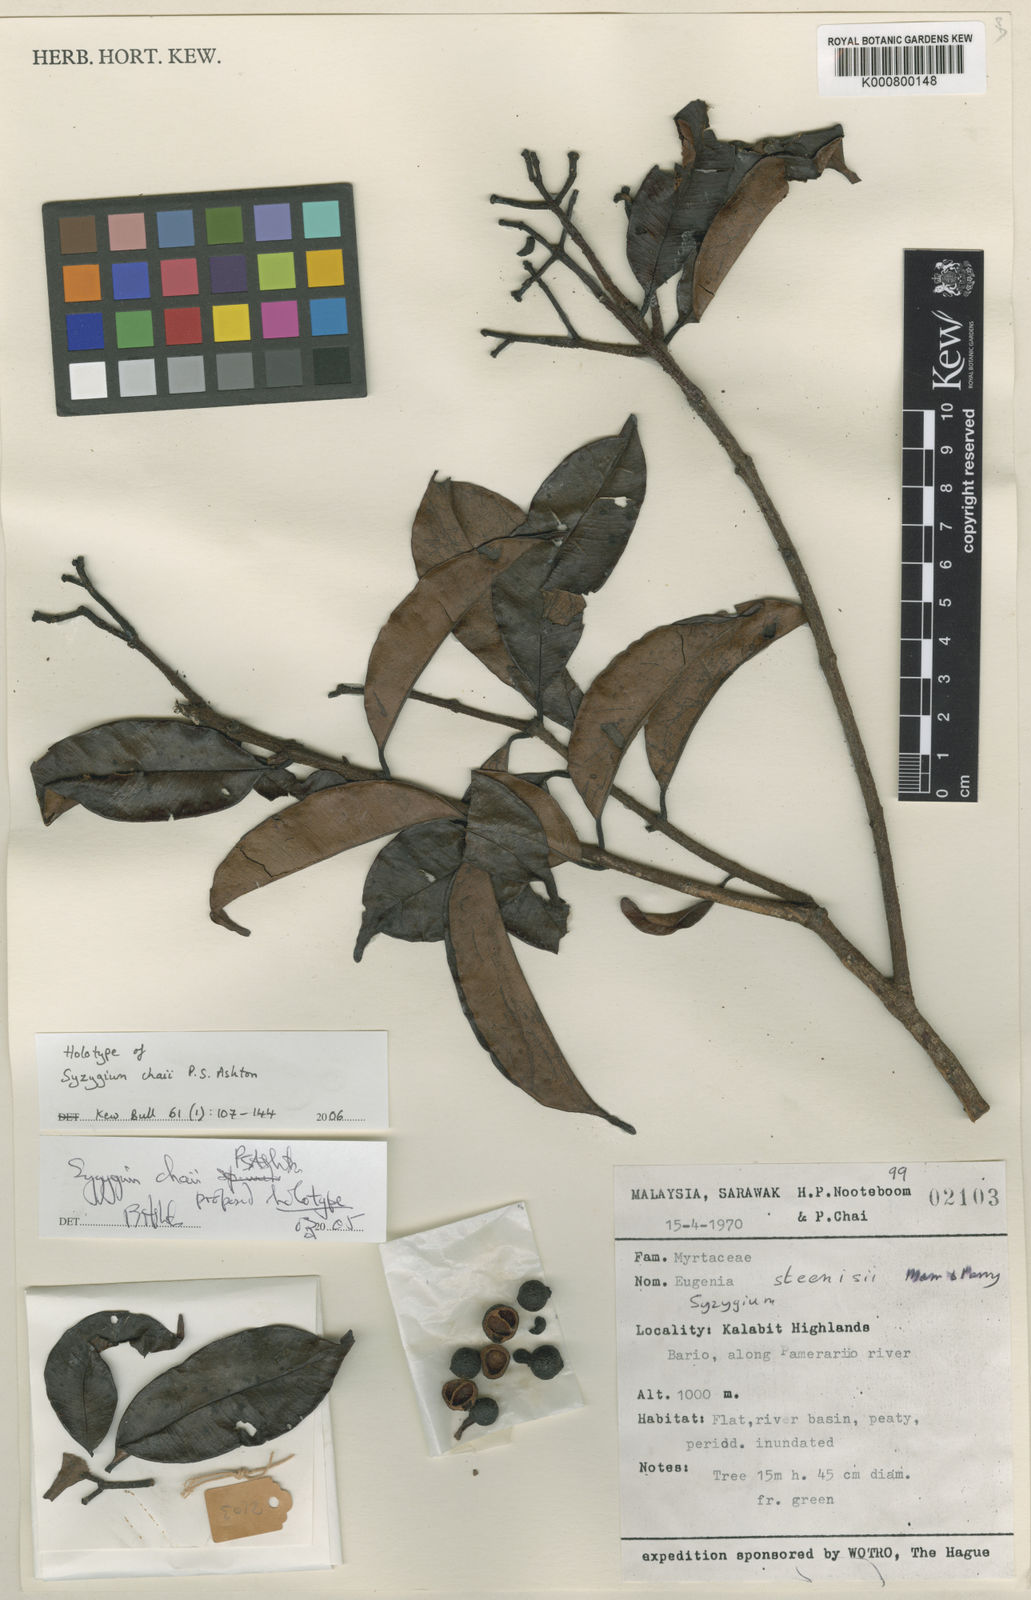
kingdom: Plantae
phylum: Tracheophyta
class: Magnoliopsida
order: Myrtales
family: Myrtaceae
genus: Syzygium
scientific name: Syzygium chaii
